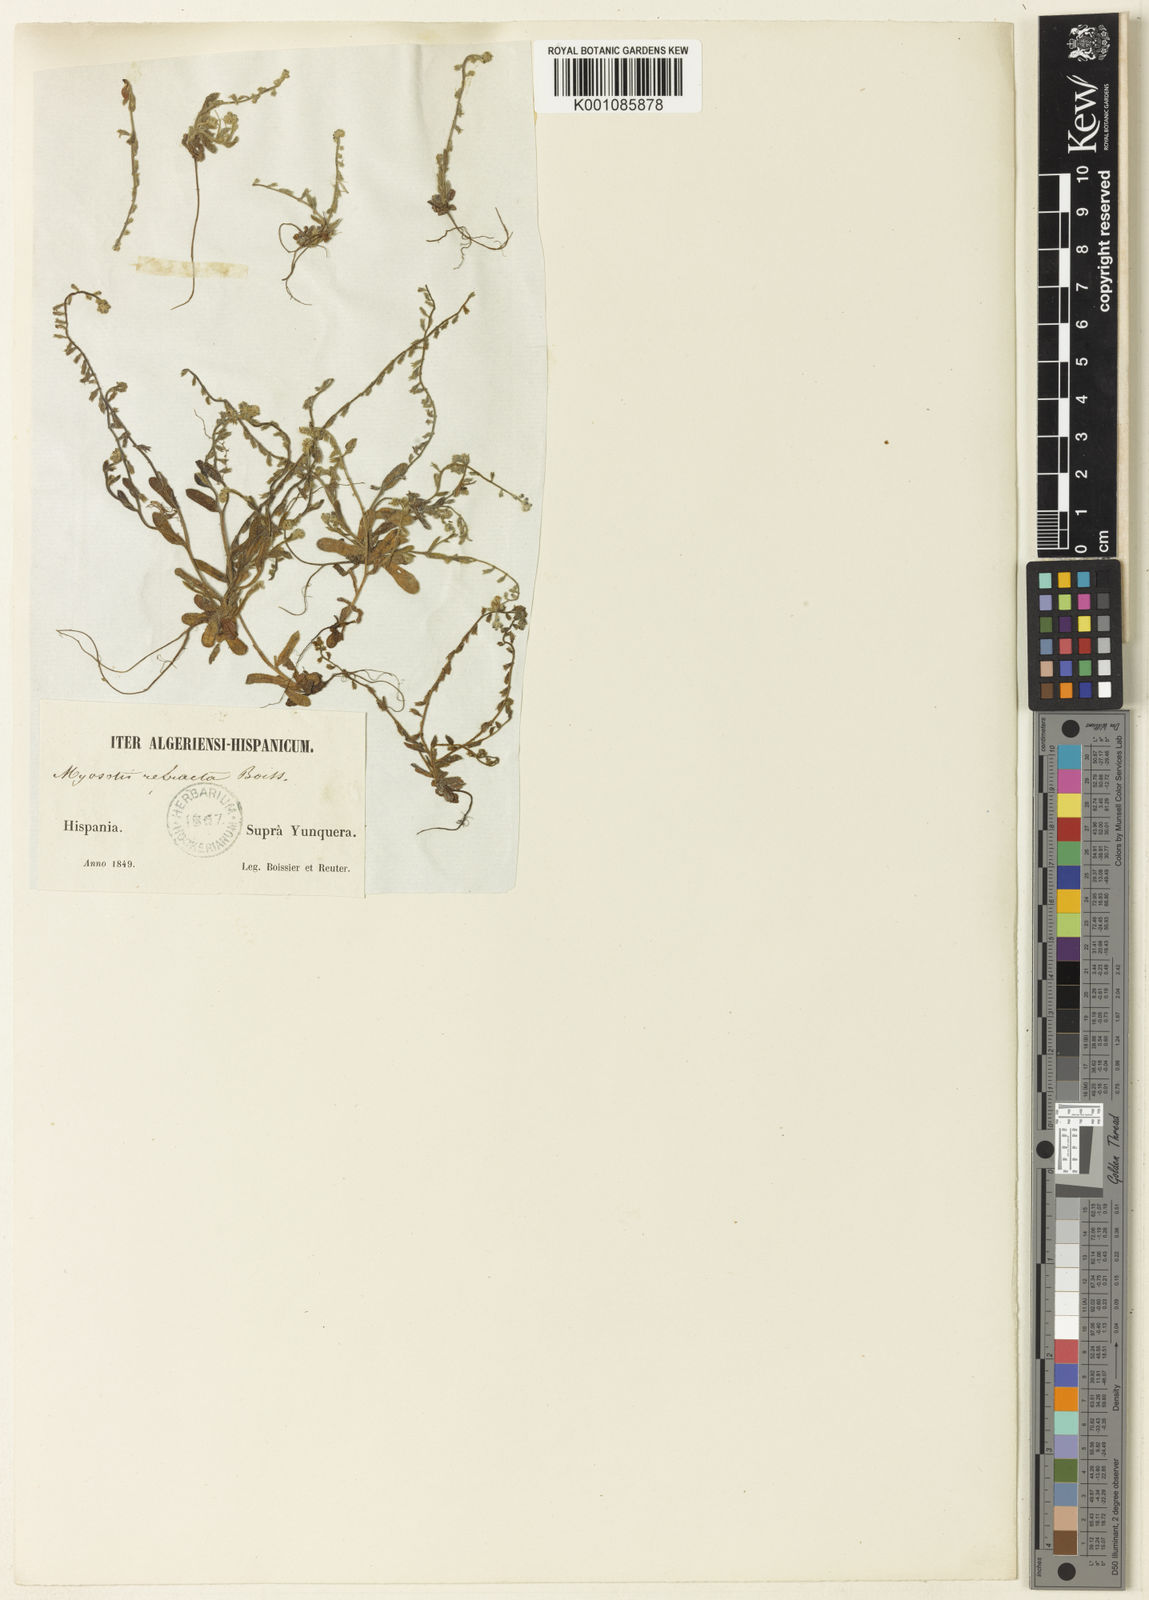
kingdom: Plantae
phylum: Tracheophyta
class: Magnoliopsida
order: Boraginales
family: Boraginaceae
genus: Myosotis
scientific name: Myosotis refracta
